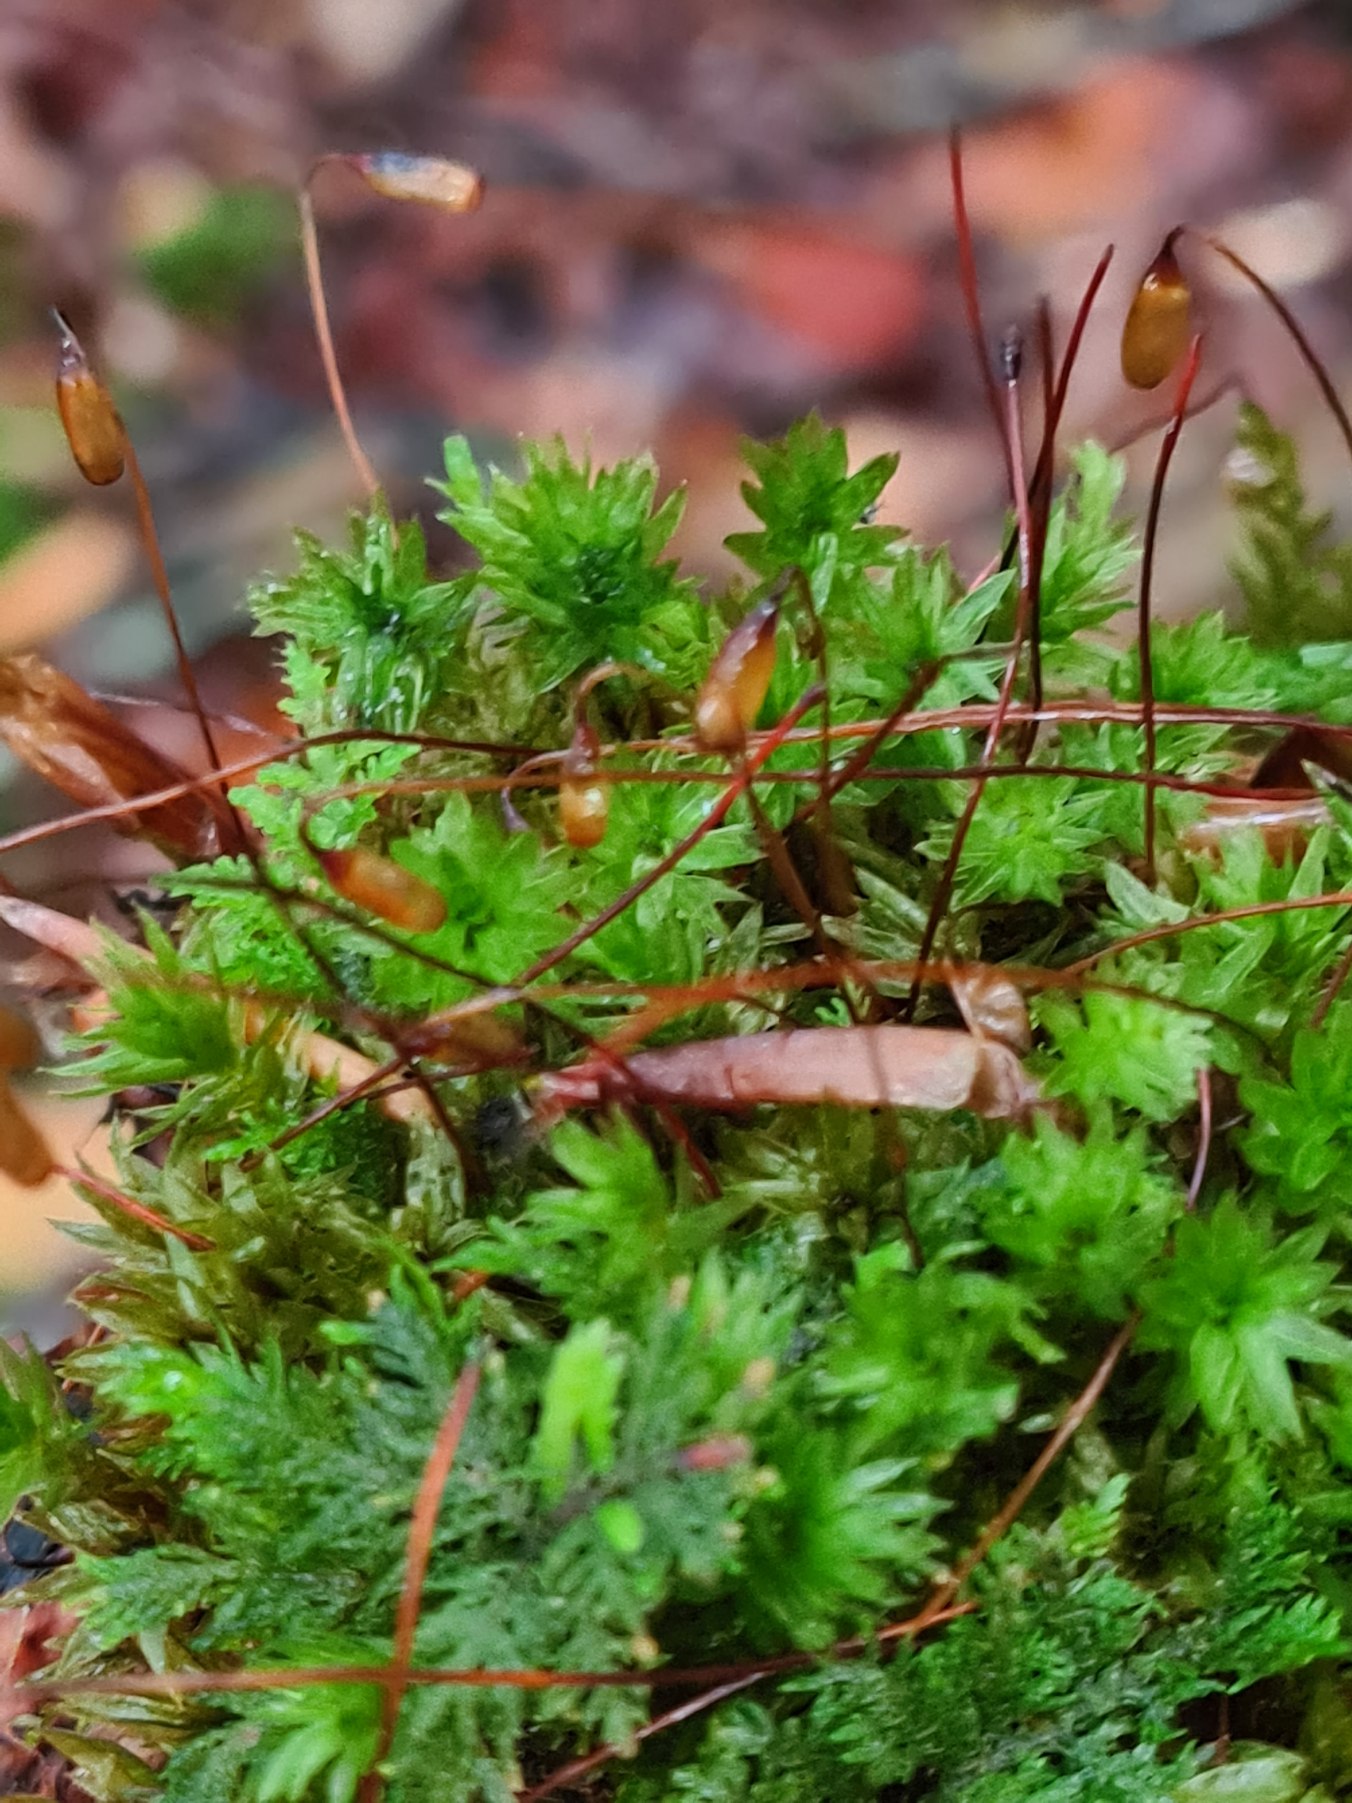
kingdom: Plantae
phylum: Bryophyta
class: Bryopsida
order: Bryales
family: Mniaceae
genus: Mnium
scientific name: Mnium hornum
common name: Brunfiltet stjernemos
